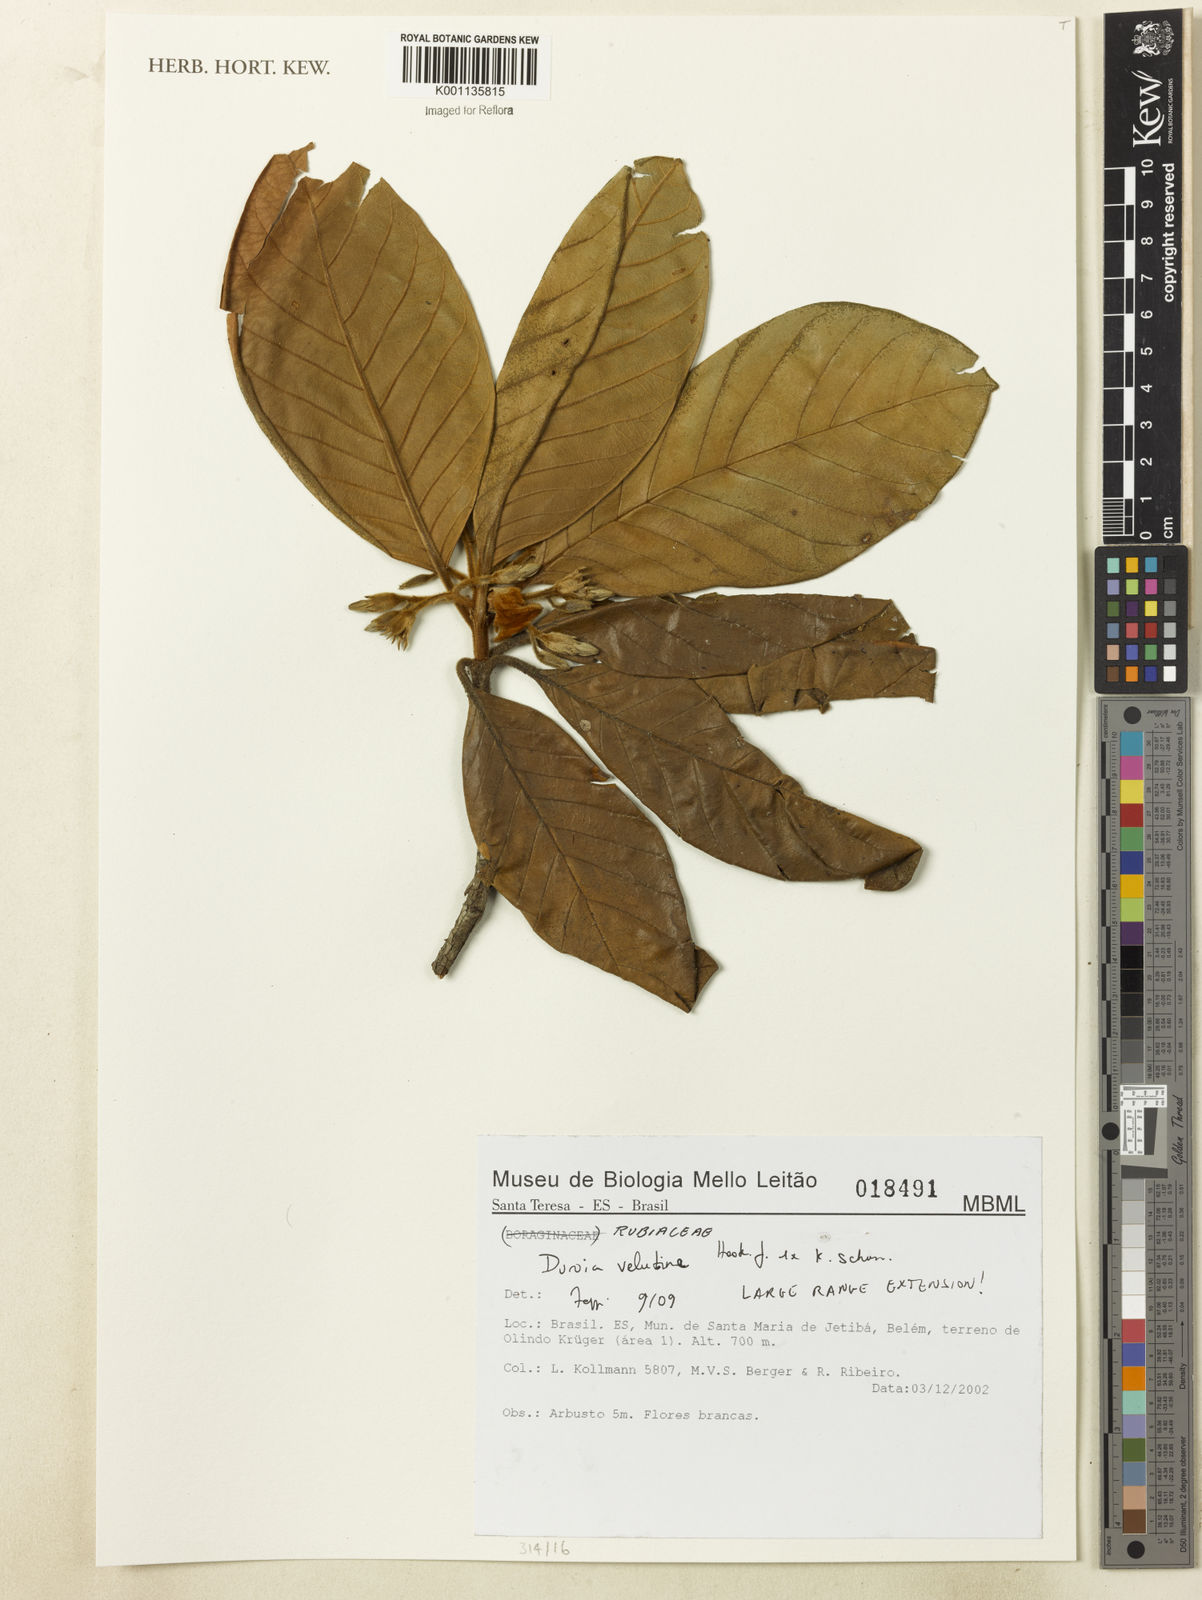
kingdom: Plantae
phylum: Tracheophyta
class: Magnoliopsida
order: Gentianales
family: Rubiaceae
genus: Duroia
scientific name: Duroia velutina
